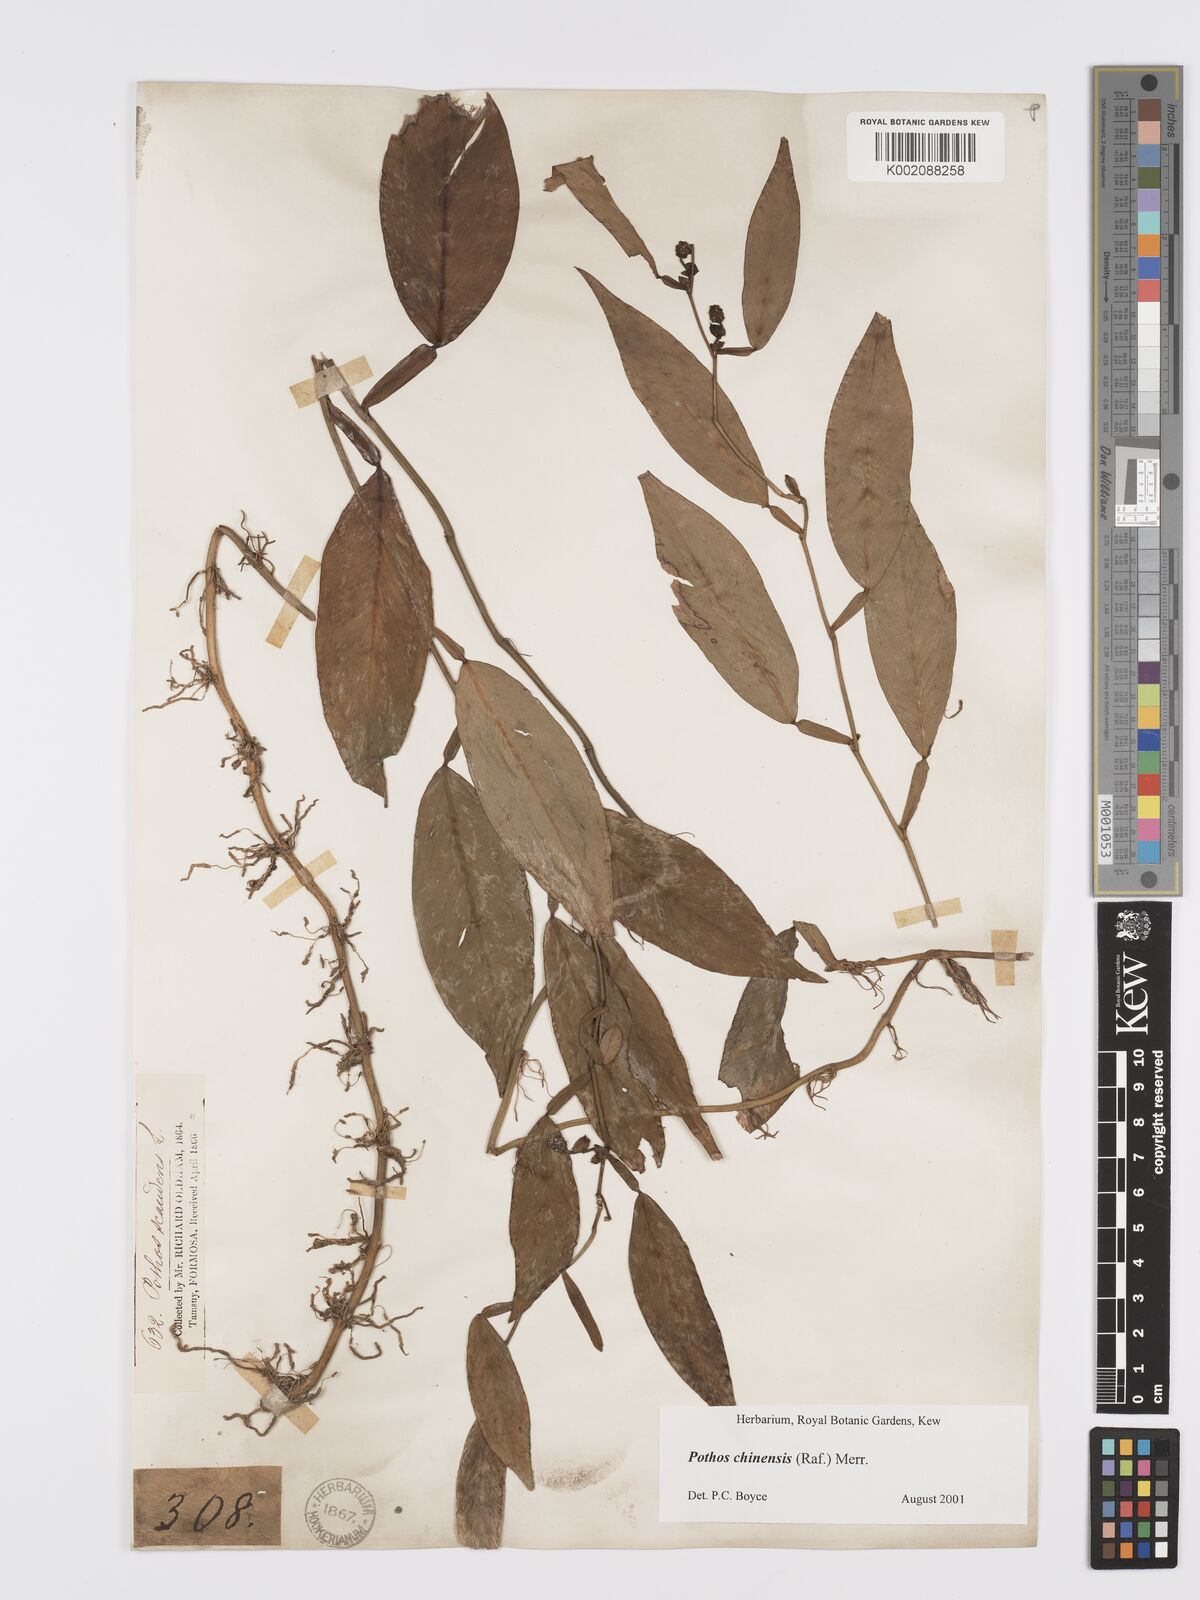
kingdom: Plantae
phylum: Tracheophyta
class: Liliopsida
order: Alismatales
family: Araceae
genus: Pothos
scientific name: Pothos chinensis
